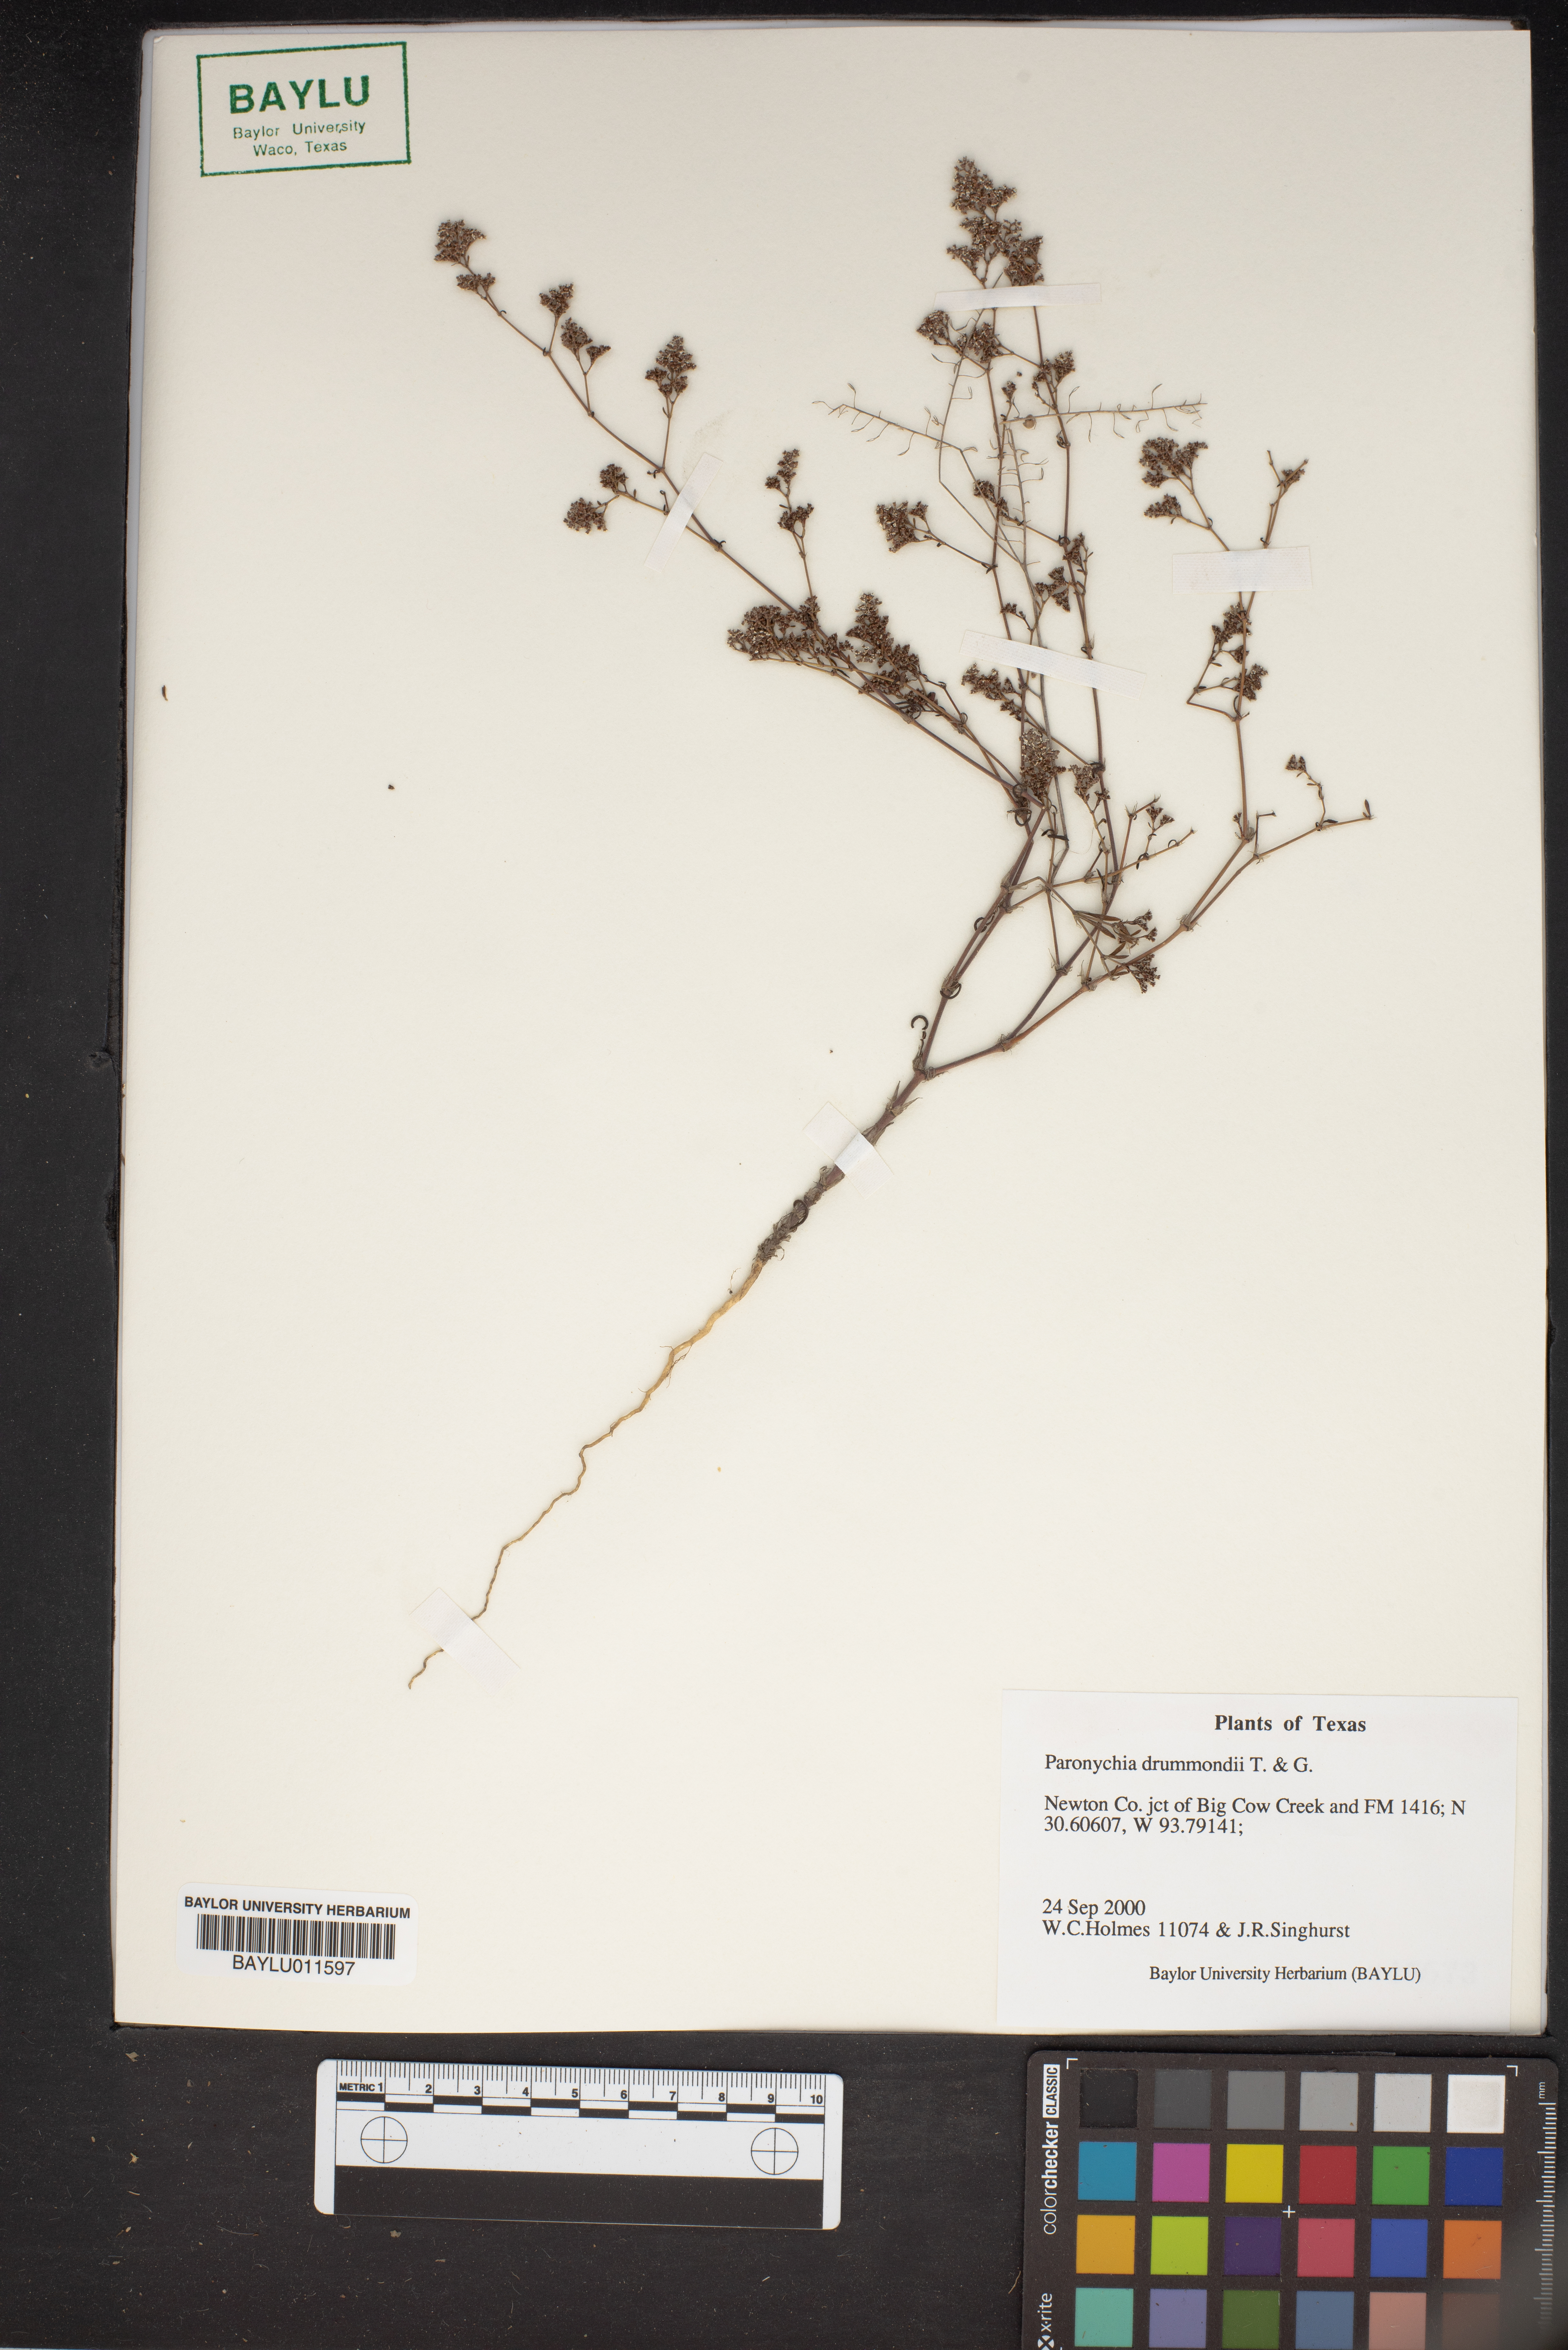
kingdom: Plantae
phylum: Tracheophyta
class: Magnoliopsida
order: Caryophyllales
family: Caryophyllaceae
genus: Paronychia
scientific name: Paronychia drummondii
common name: Drummond's nailwort
